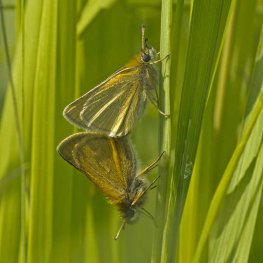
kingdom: Animalia
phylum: Arthropoda
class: Insecta
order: Lepidoptera
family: Hesperiidae
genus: Thymelicus
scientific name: Thymelicus lineola
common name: European Skipper
